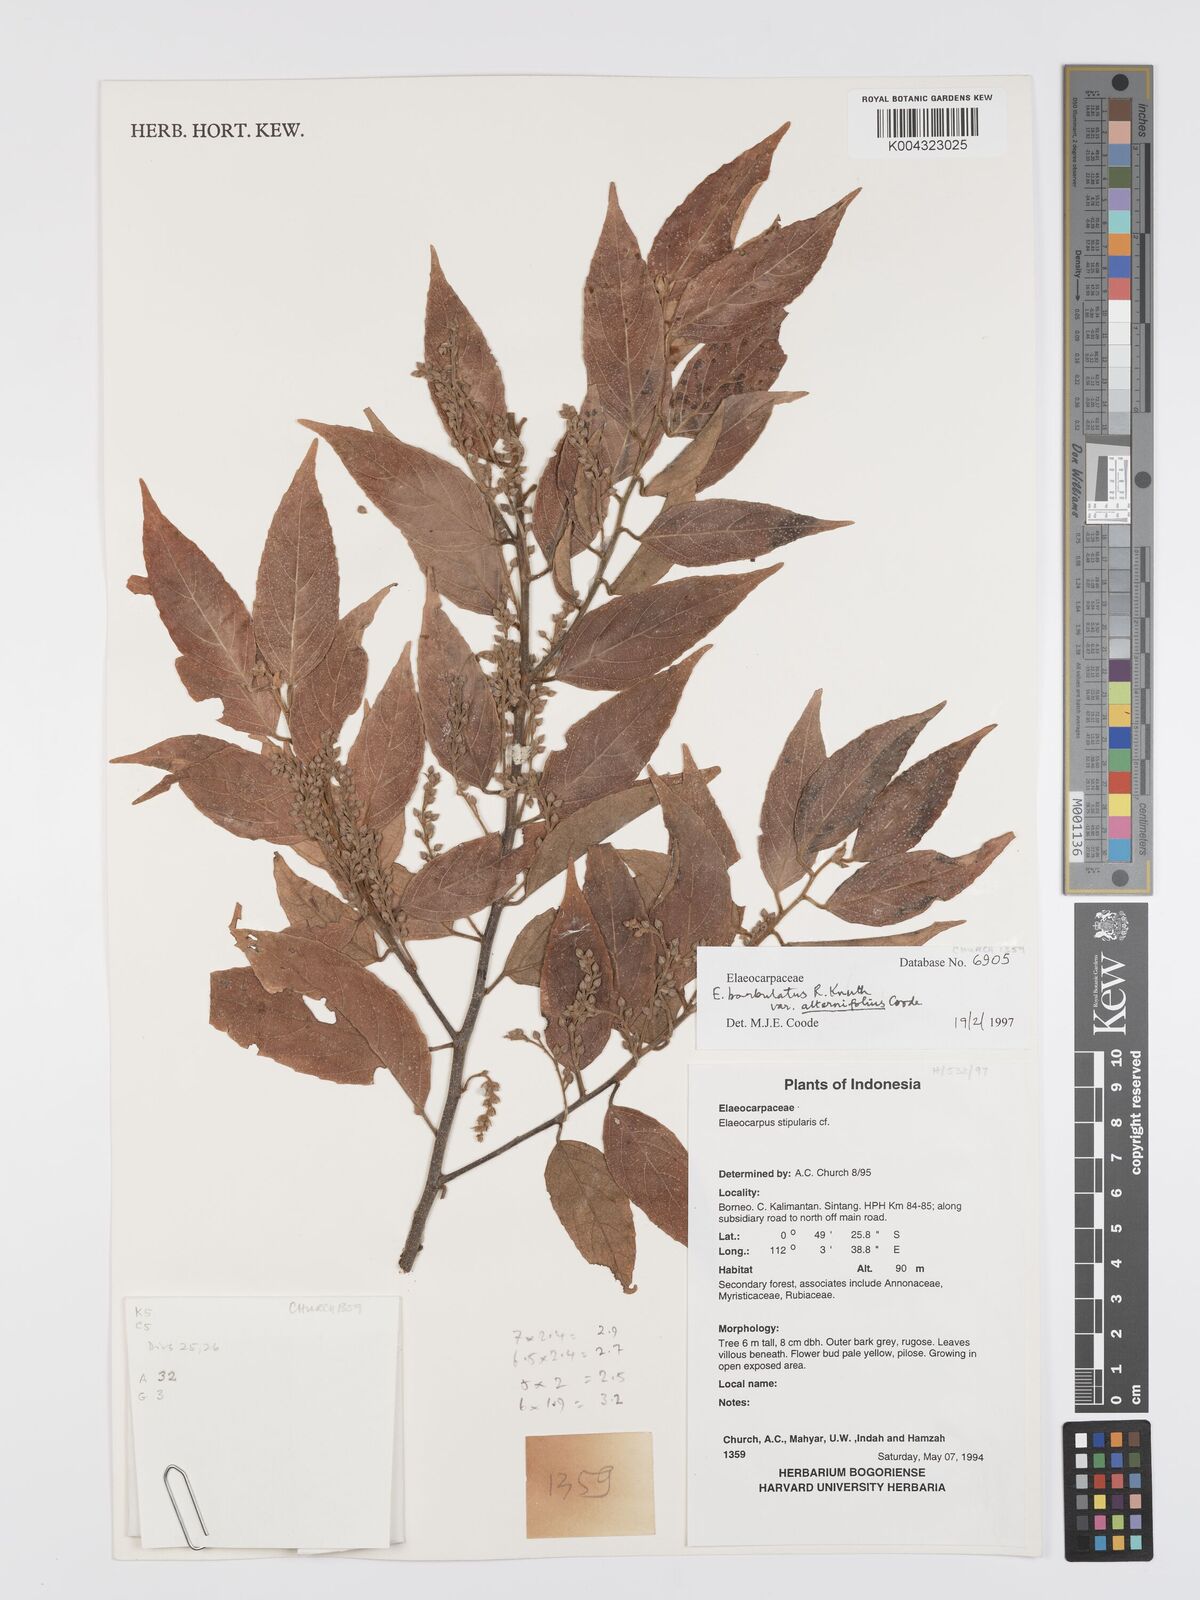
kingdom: Plantae
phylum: Tracheophyta
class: Magnoliopsida
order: Oxalidales
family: Elaeocarpaceae
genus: Elaeocarpus
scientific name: Elaeocarpus barbulatus
